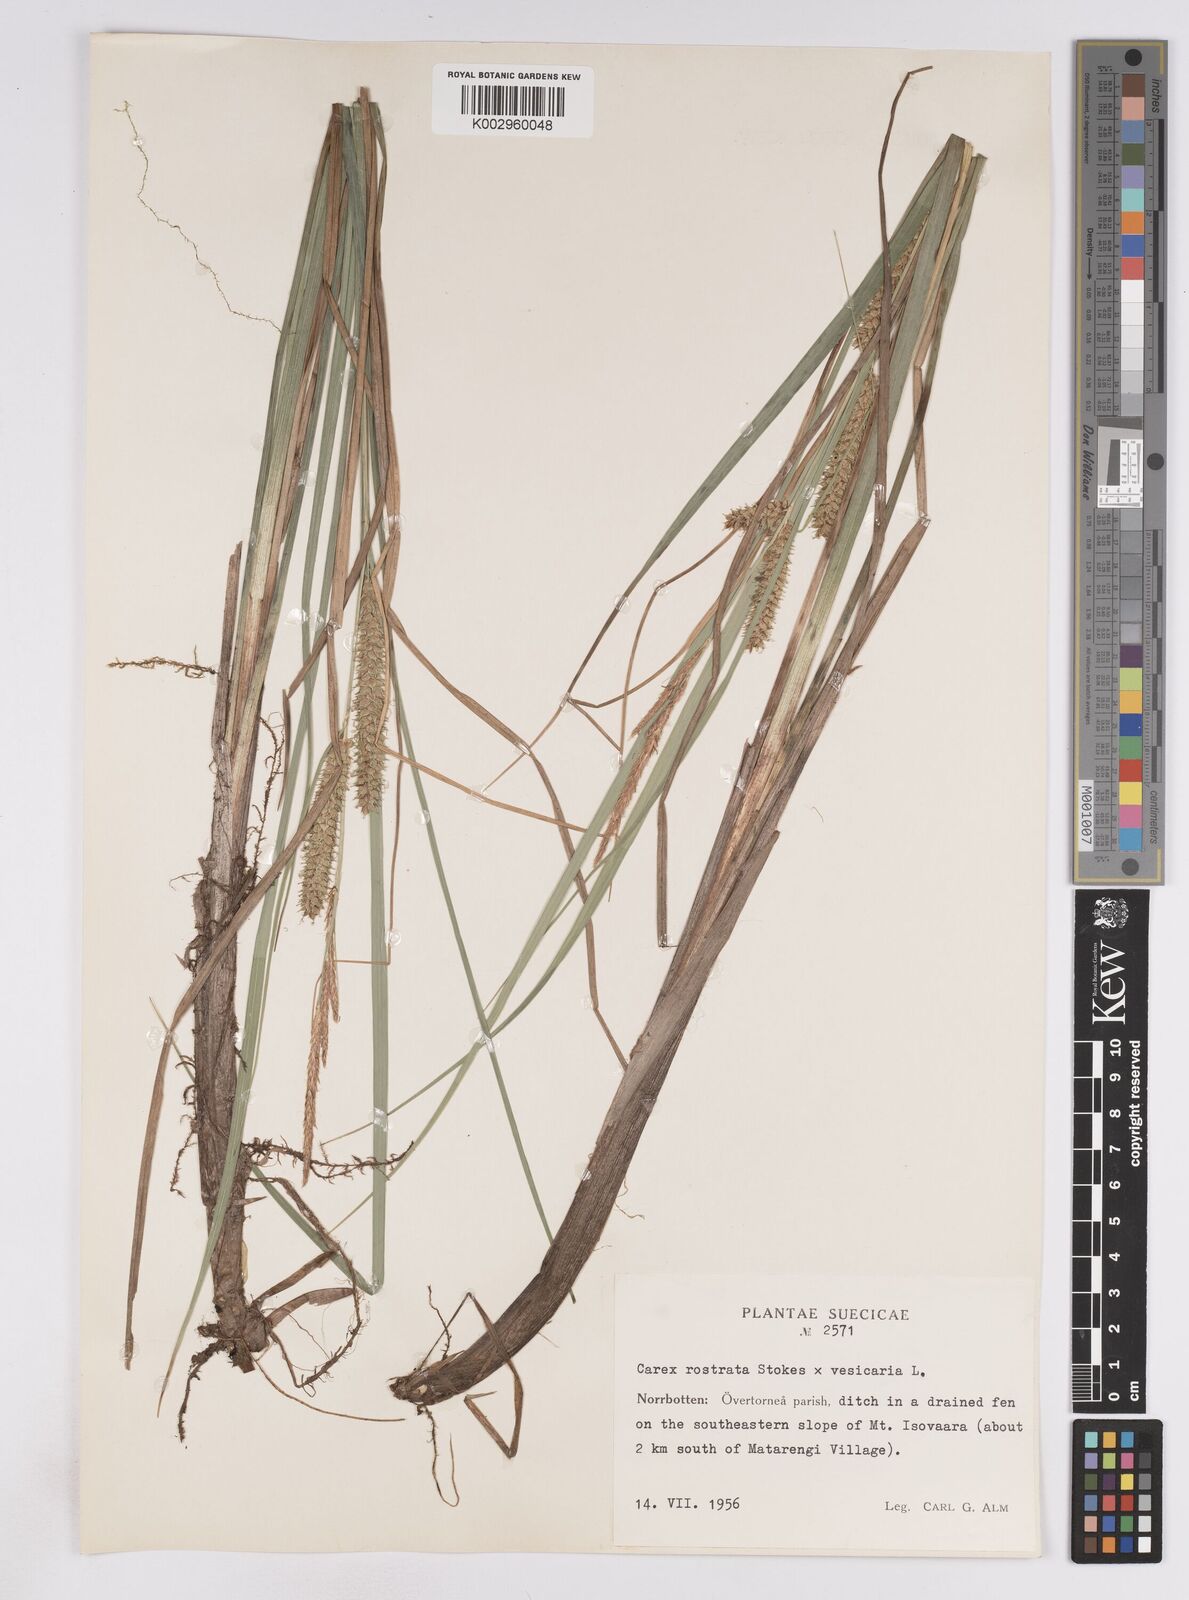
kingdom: Plantae
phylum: Tracheophyta
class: Liliopsida
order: Poales
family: Cyperaceae
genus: Carex
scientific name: Carex
